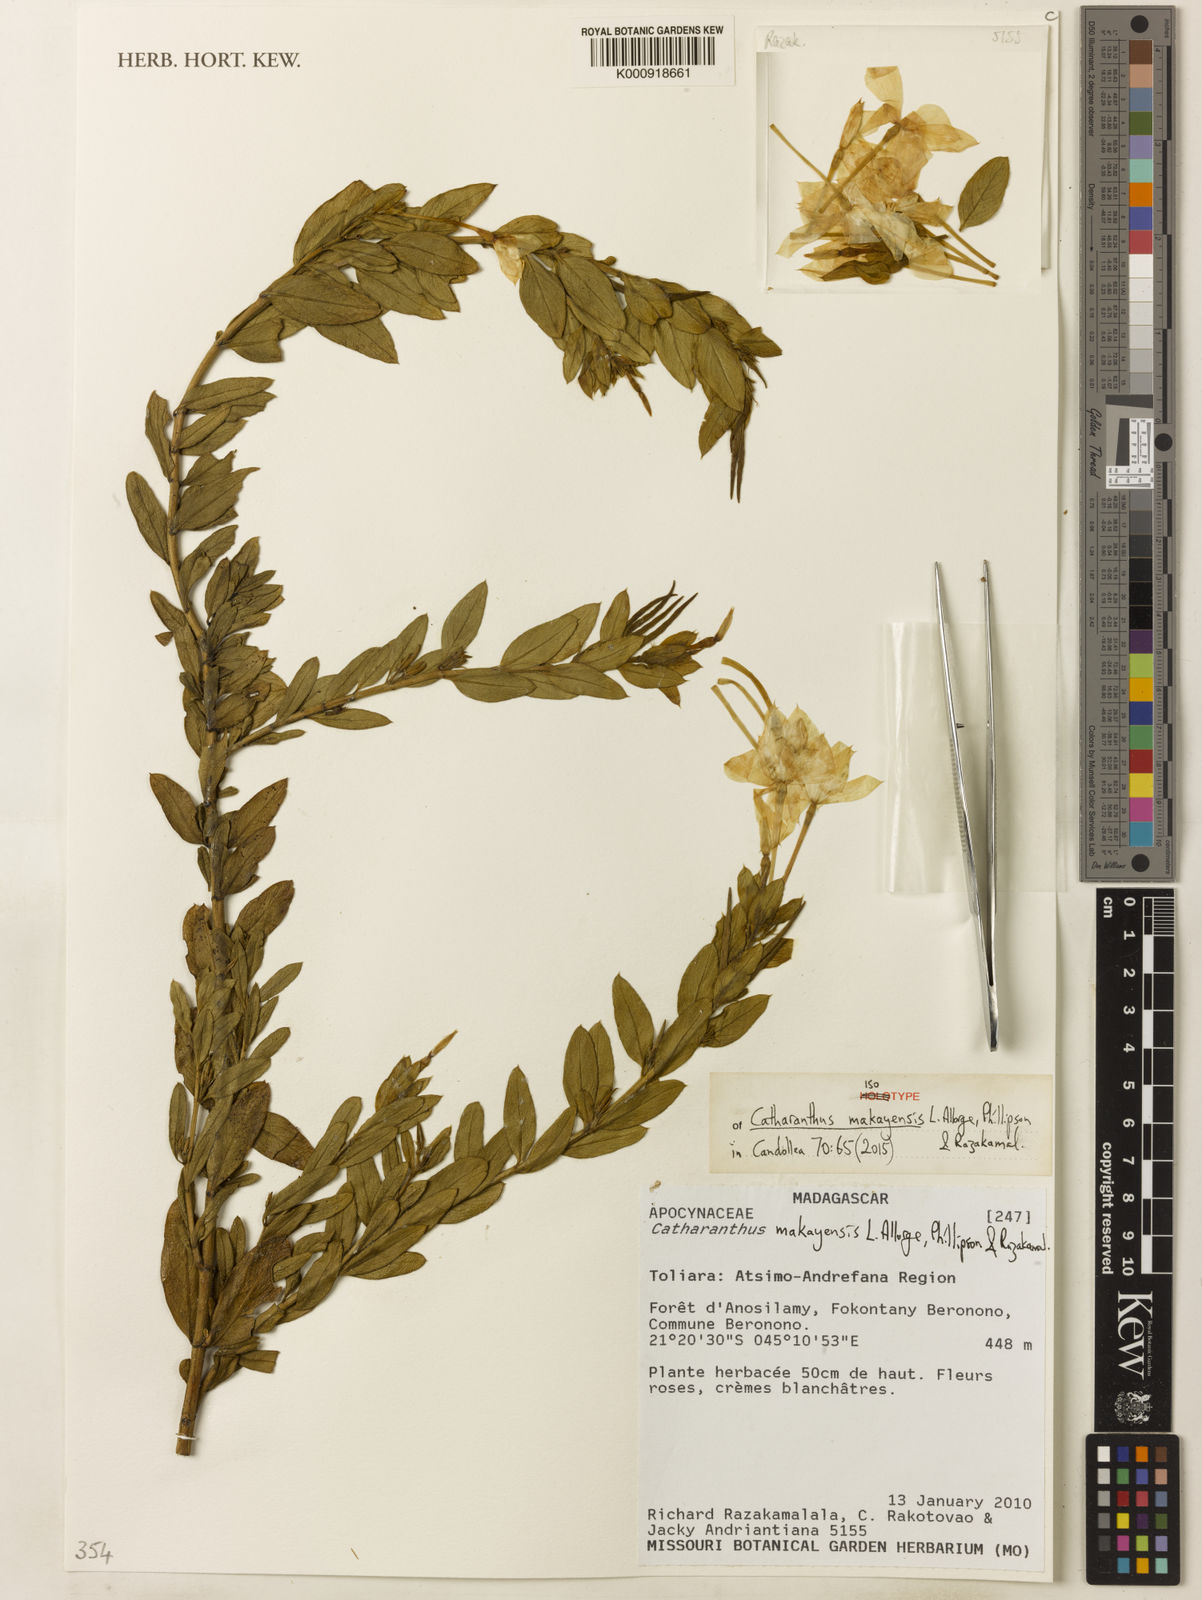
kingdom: Plantae
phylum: Tracheophyta
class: Magnoliopsida
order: Gentianales
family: Apocynaceae
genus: Catharanthus
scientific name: Catharanthus makayensis
